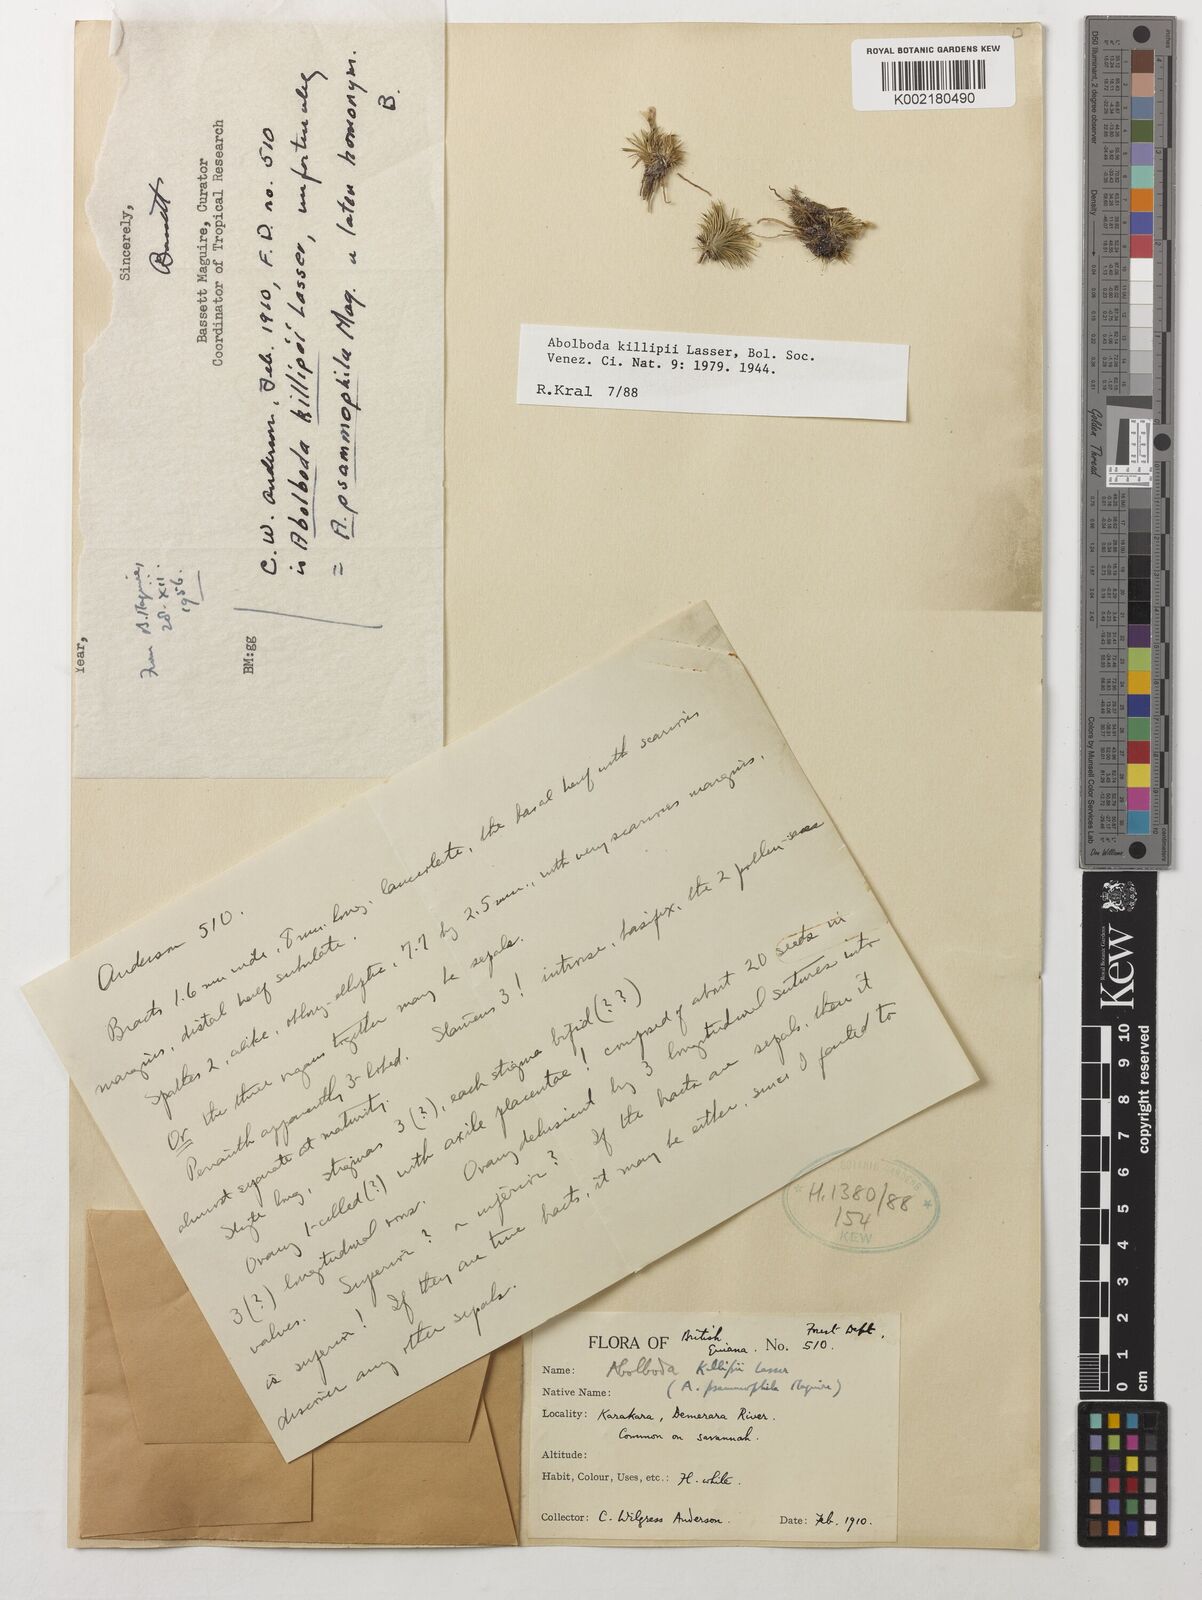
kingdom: Plantae
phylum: Tracheophyta
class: Liliopsida
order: Poales
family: Xyridaceae
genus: Abolboda
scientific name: Abolboda killipii
